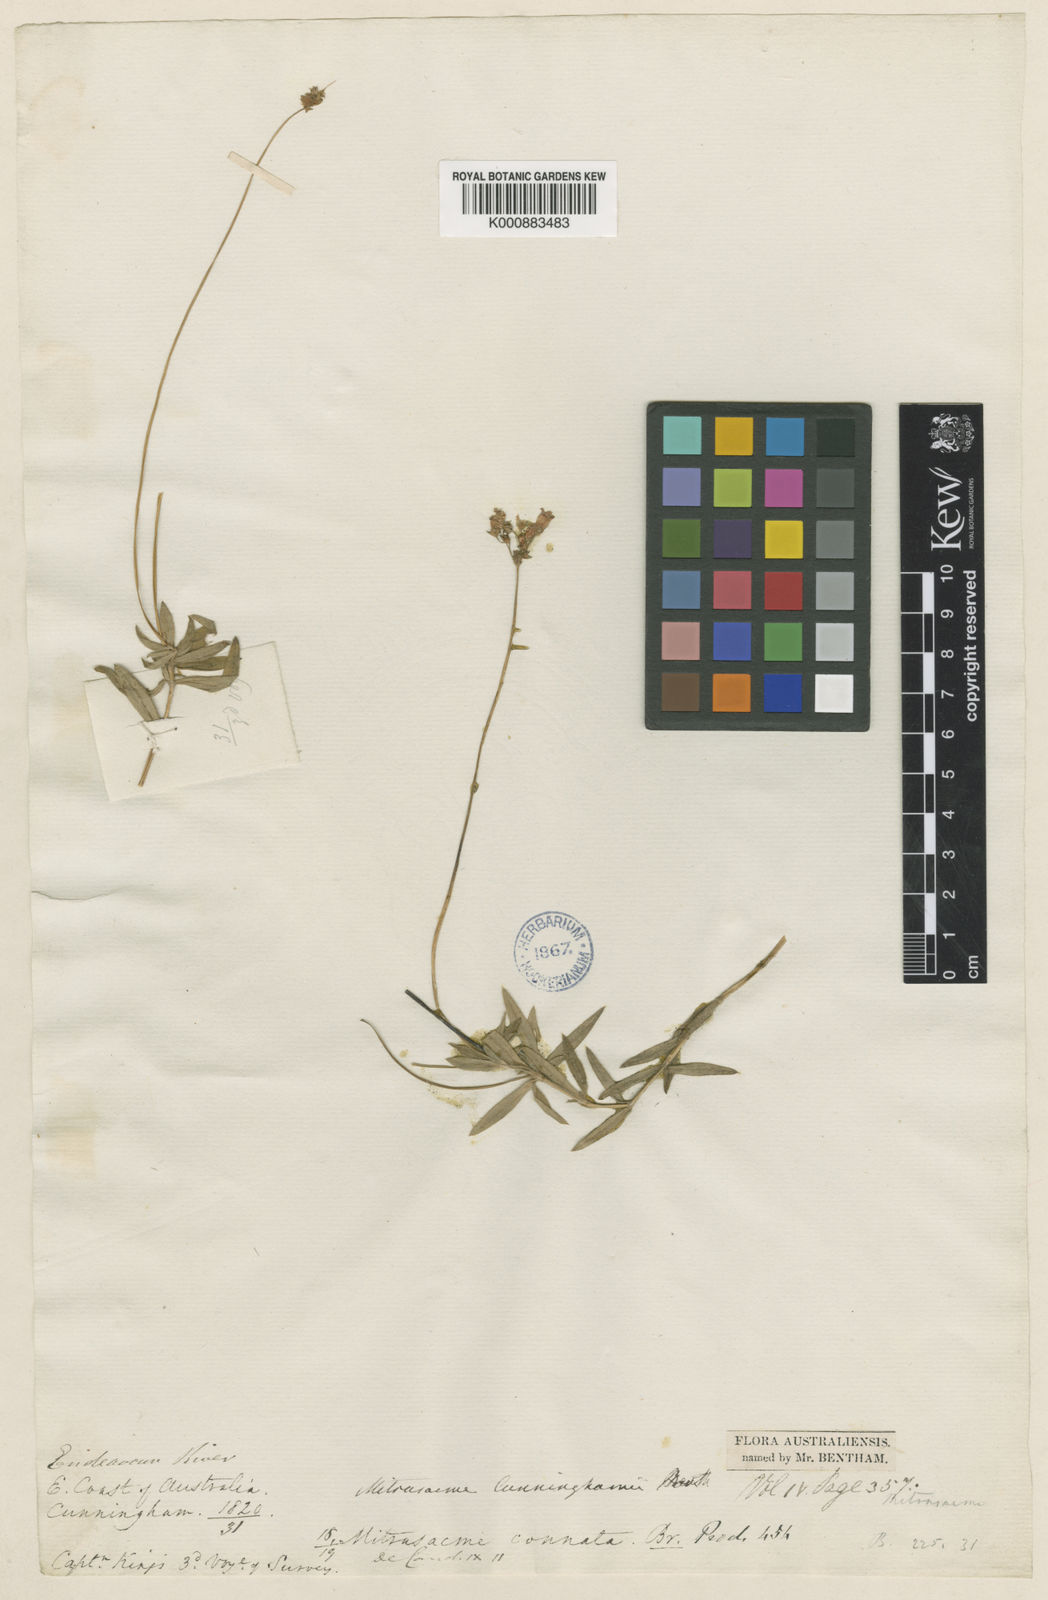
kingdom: Plantae
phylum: Tracheophyta
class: Magnoliopsida
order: Gentianales
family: Loganiaceae
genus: Mitrasacme
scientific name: Mitrasacme stellata
